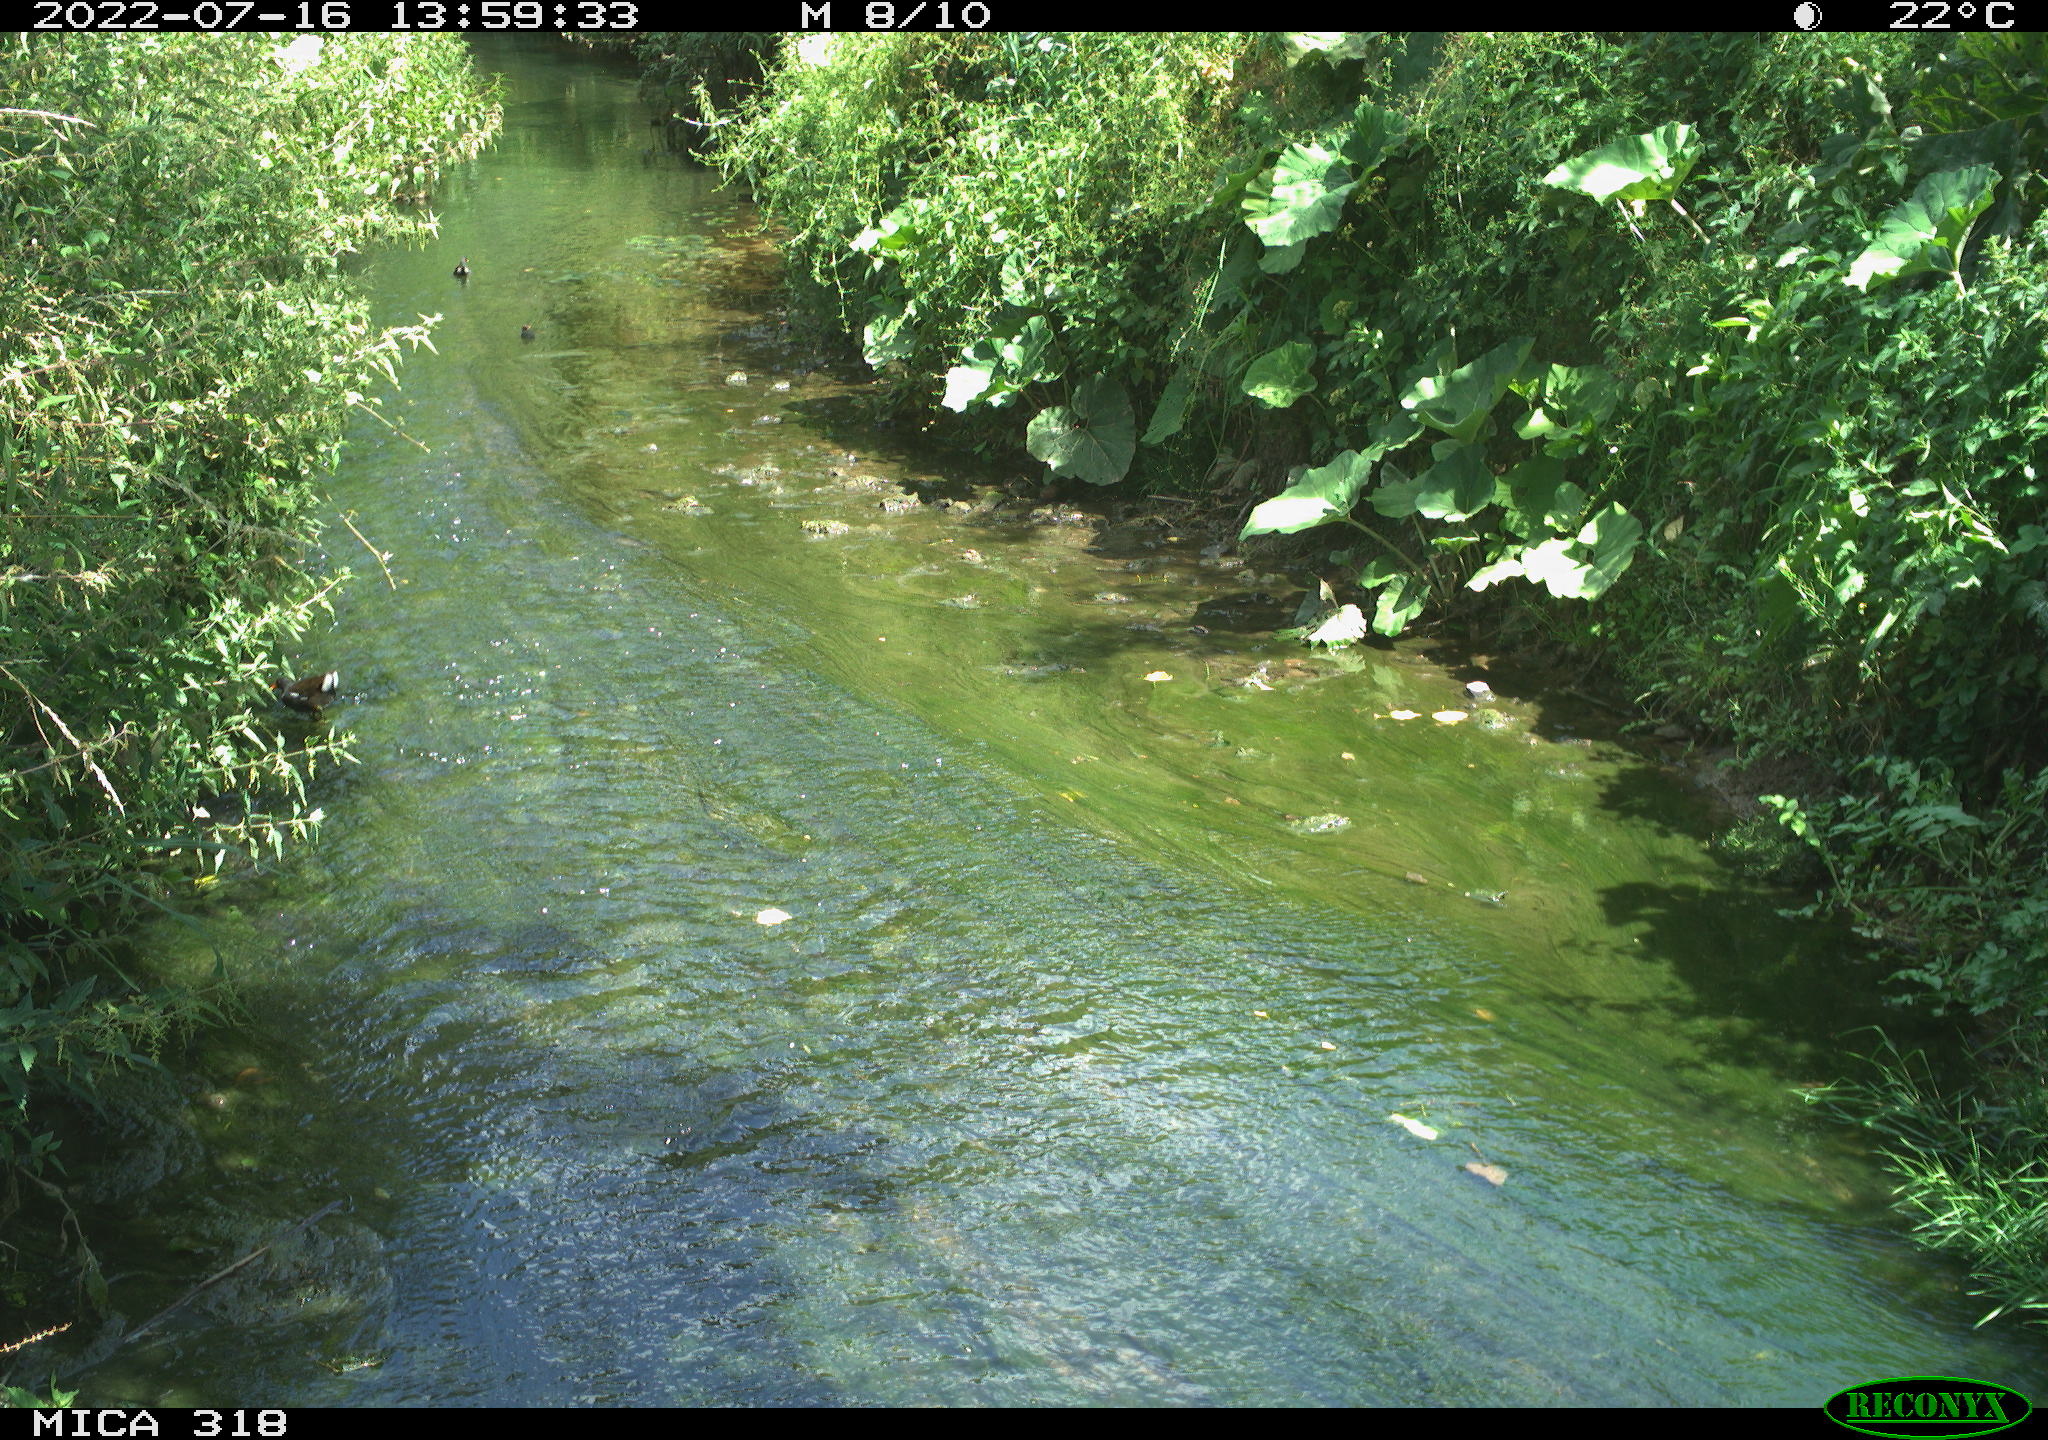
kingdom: Animalia
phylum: Chordata
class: Aves
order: Gruiformes
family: Rallidae
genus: Gallinula
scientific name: Gallinula chloropus
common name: Common moorhen
